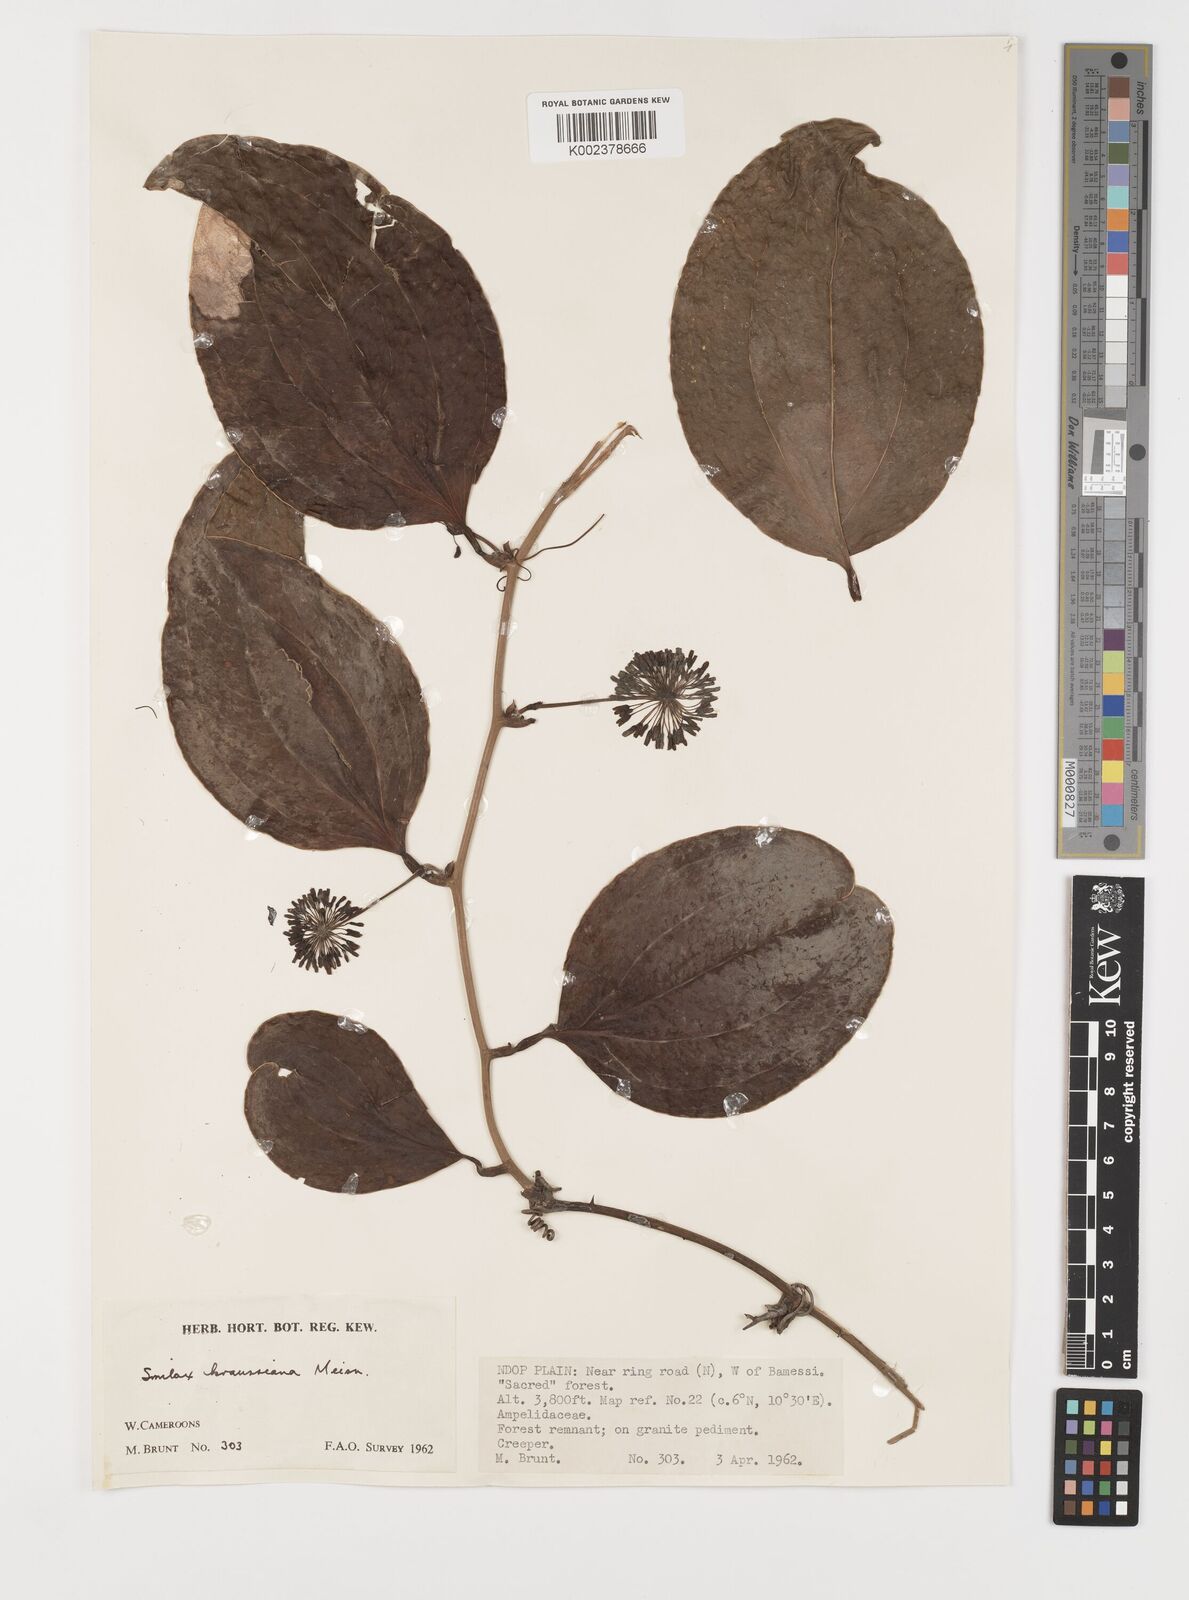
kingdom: Plantae
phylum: Tracheophyta
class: Liliopsida
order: Liliales
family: Smilacaceae
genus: Smilax
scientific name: Smilax anceps
